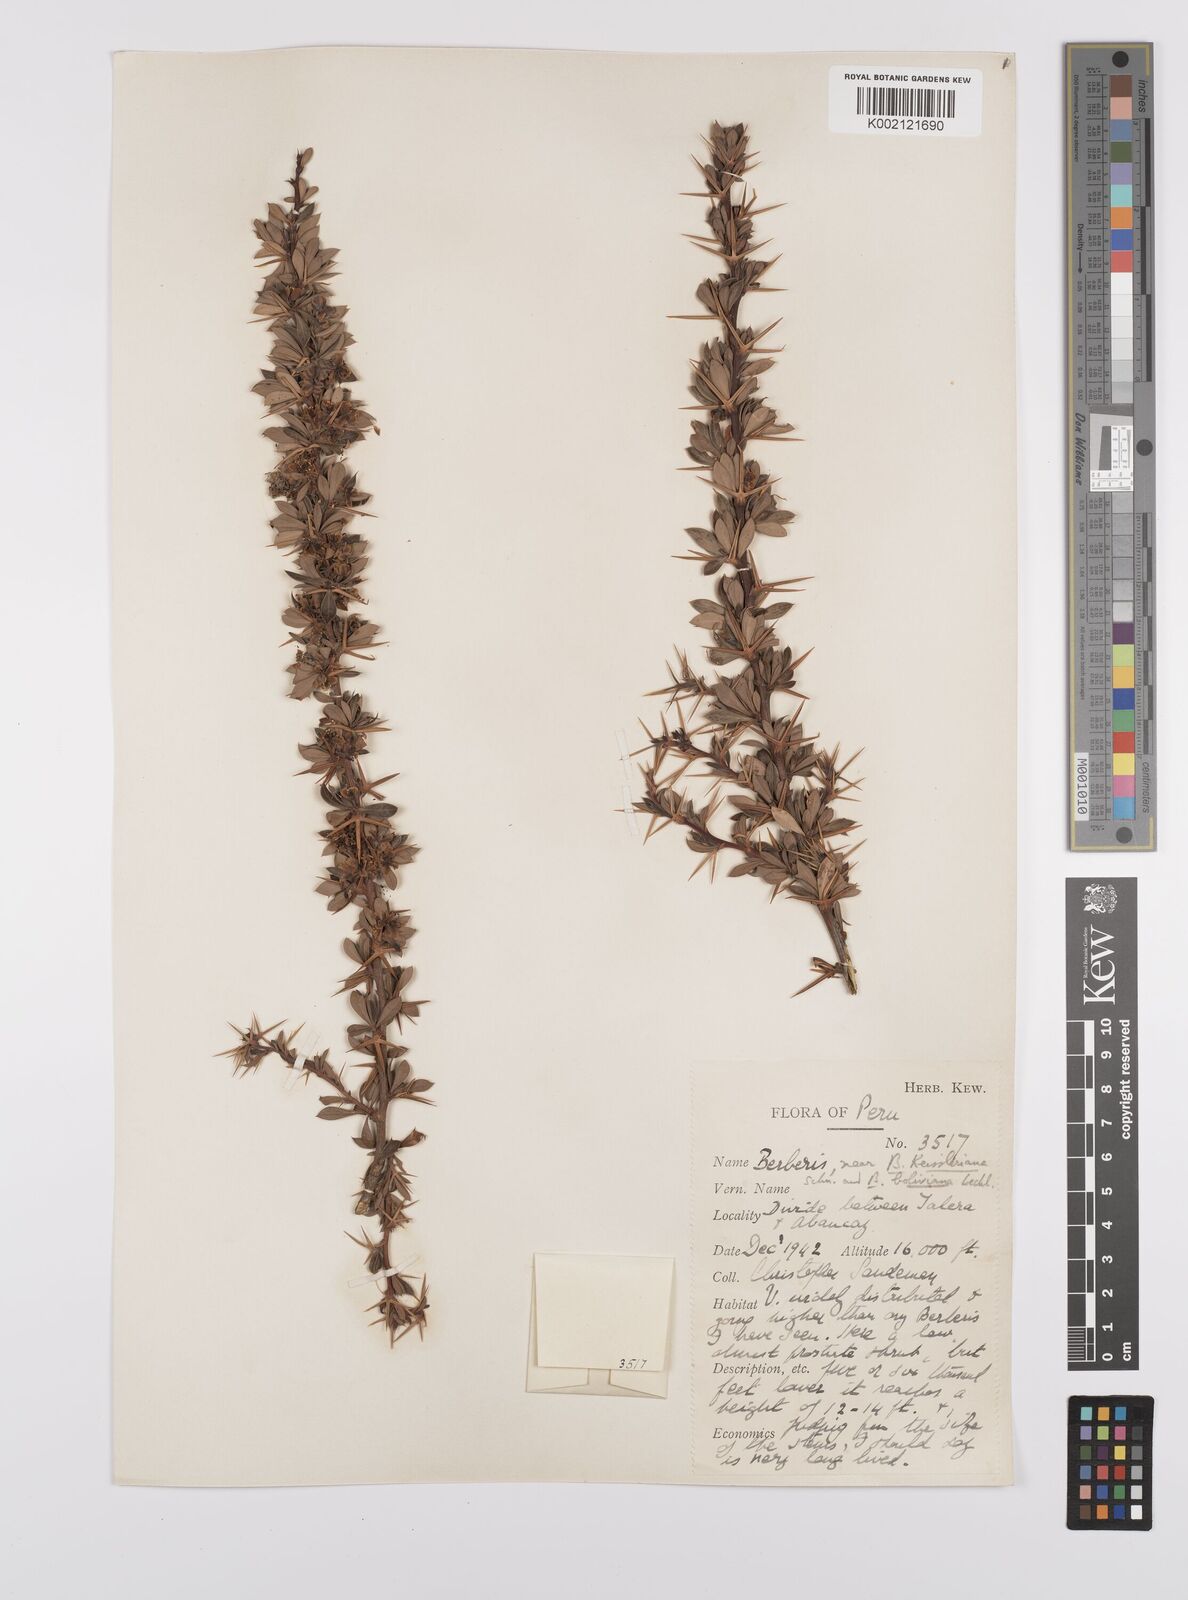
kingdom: Plantae
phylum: Tracheophyta
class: Magnoliopsida
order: Ranunculales
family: Berberidaceae
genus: Berberis
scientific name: Berberis boliviana
